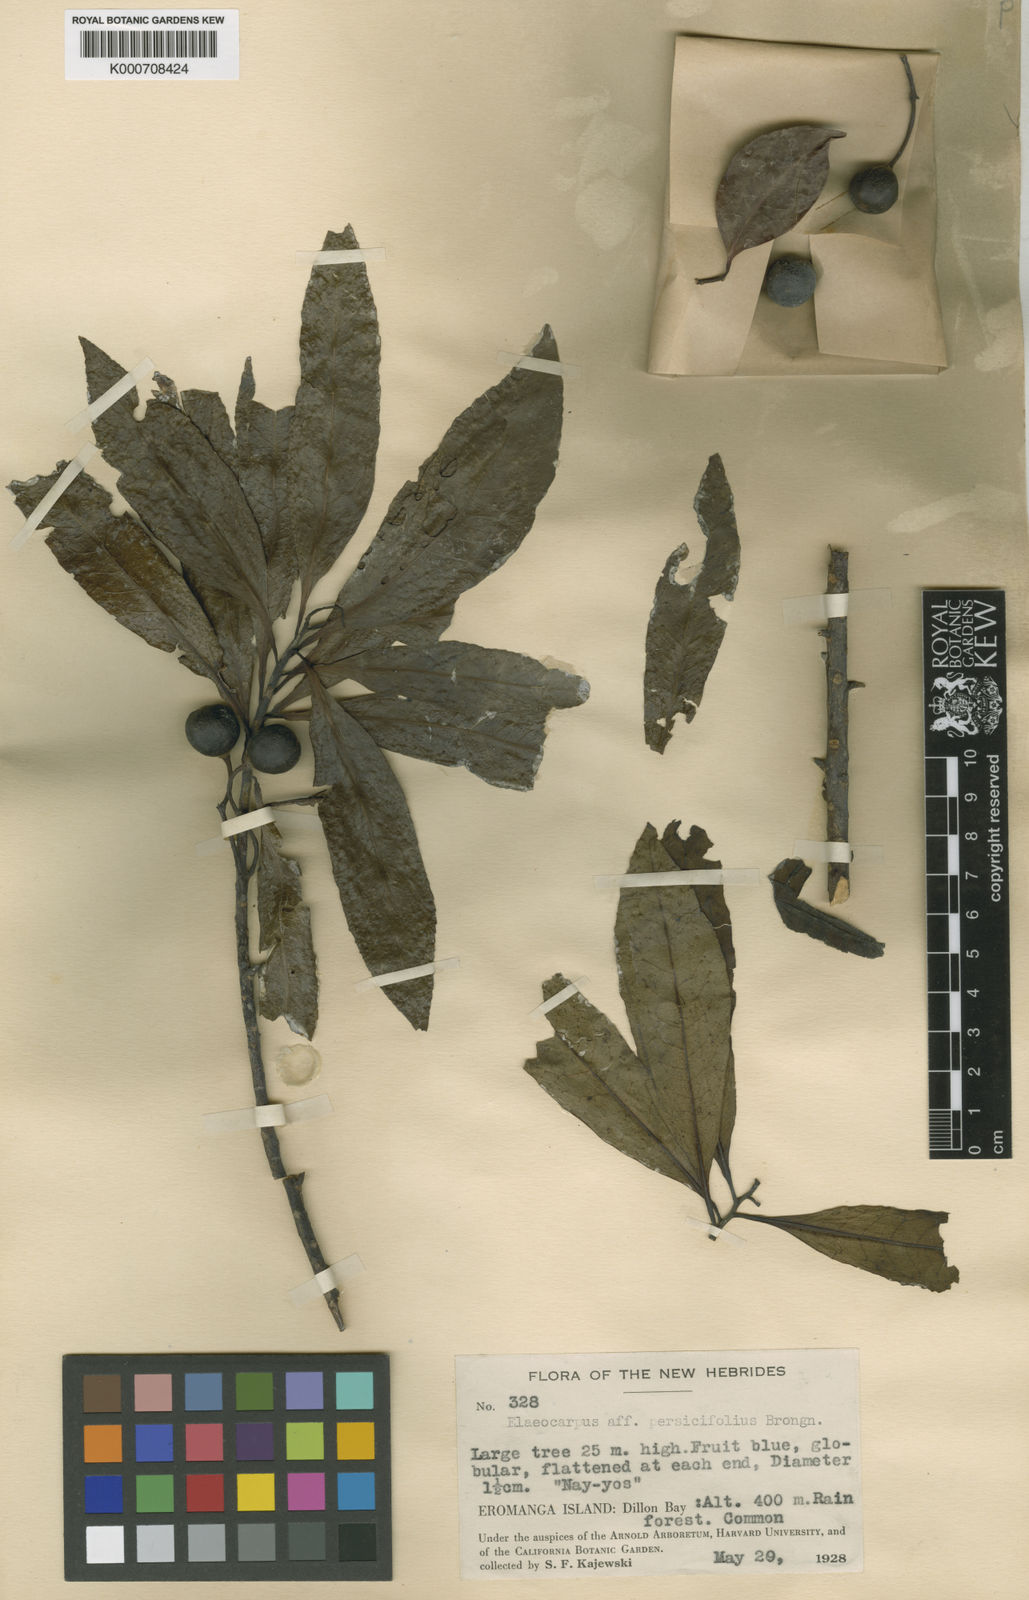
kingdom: Plantae
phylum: Tracheophyta
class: Magnoliopsida
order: Oxalidales
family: Elaeocarpaceae
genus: Elaeocarpus
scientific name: Elaeocarpus persicifolius
